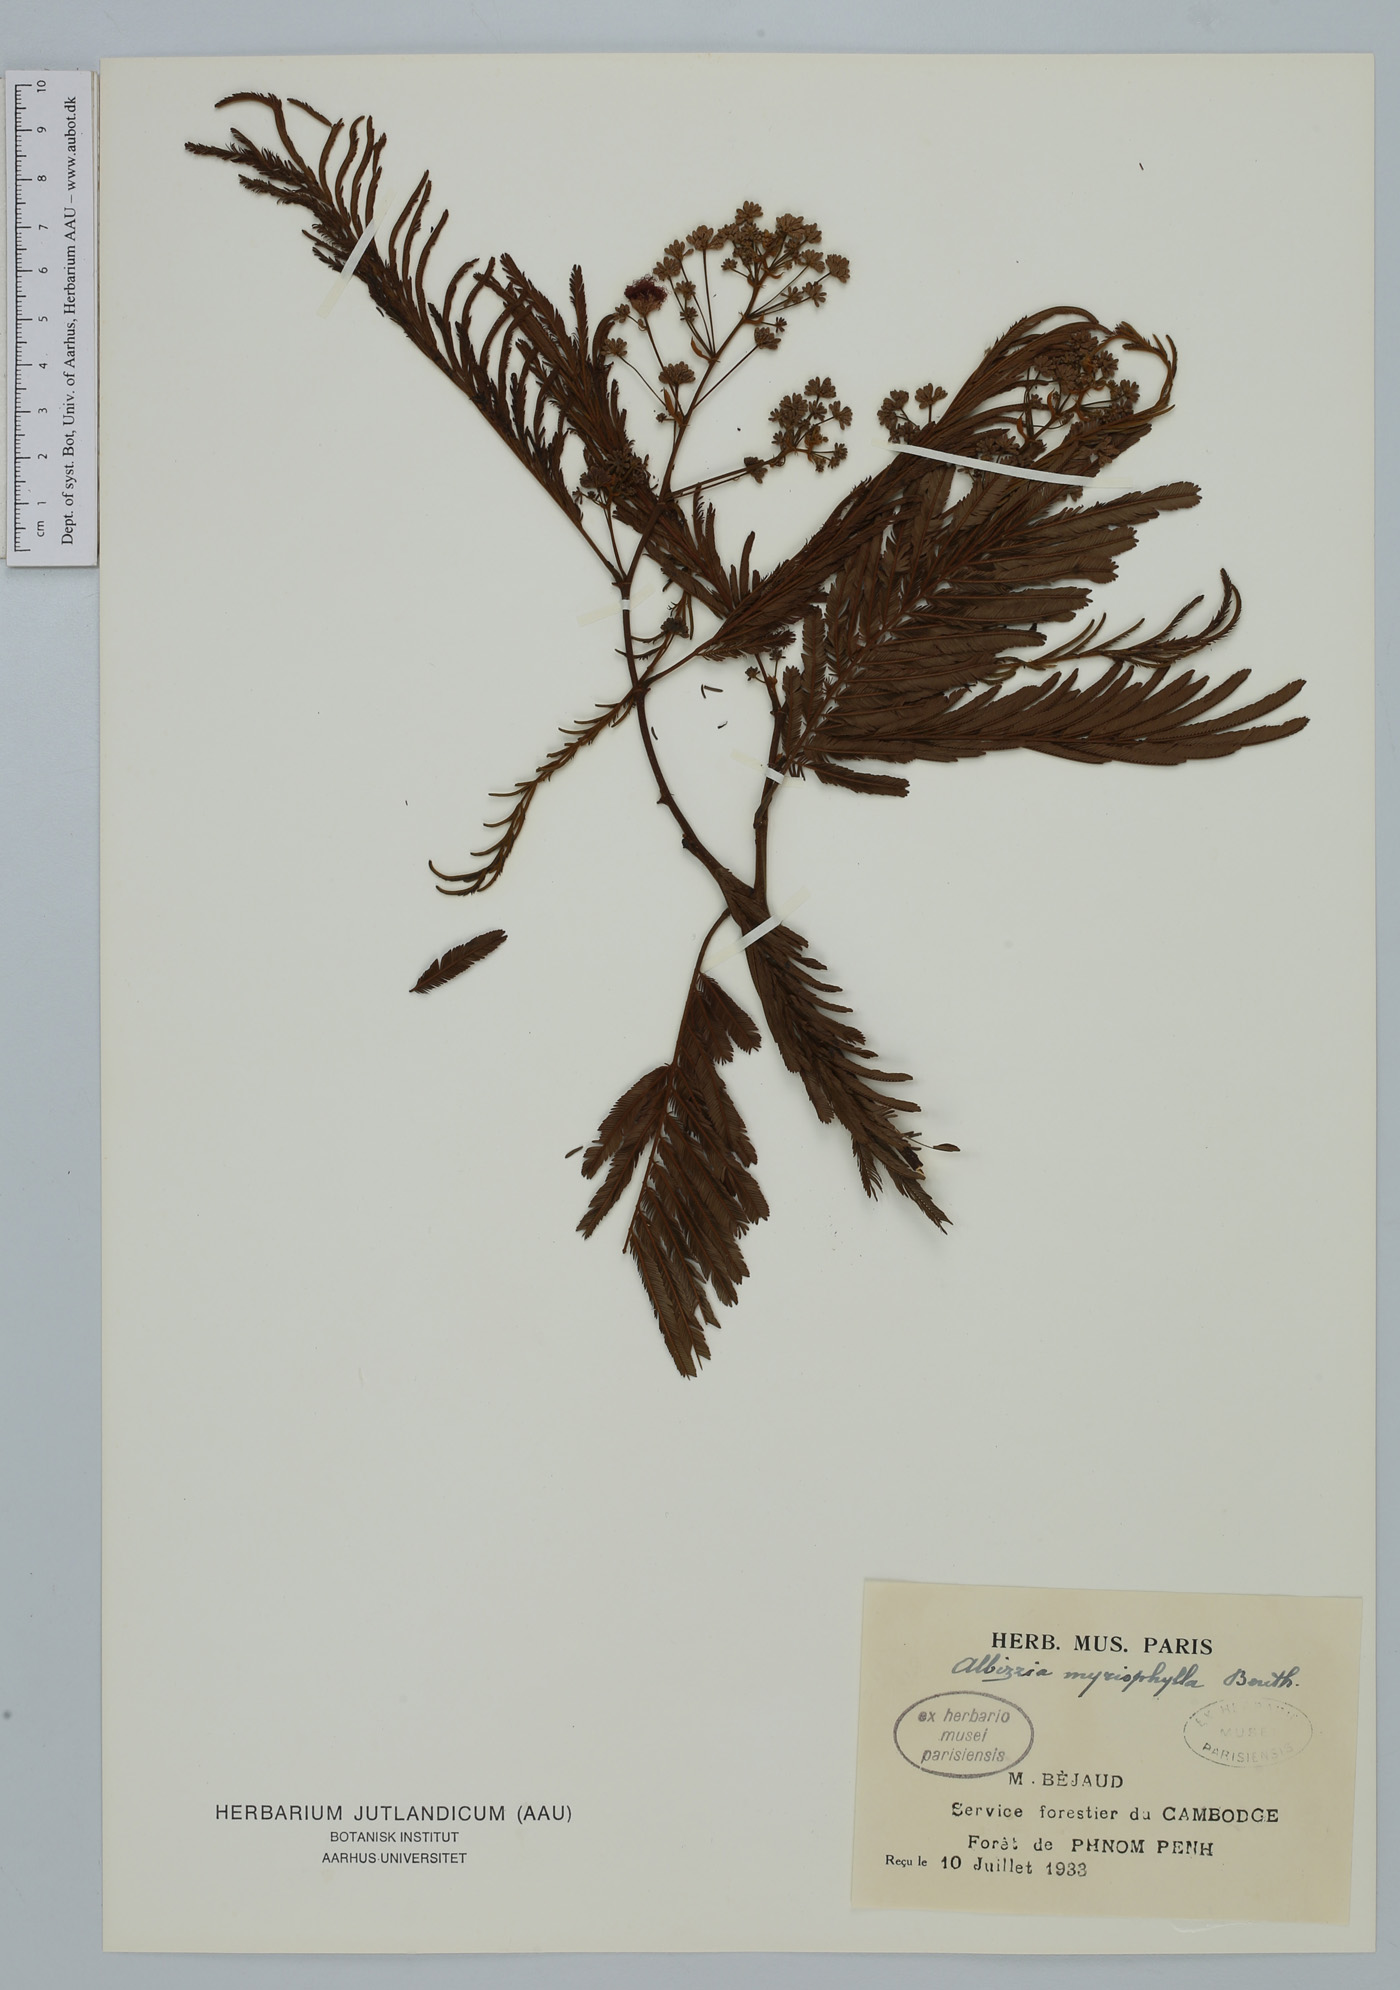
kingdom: Plantae
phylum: Tracheophyta
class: Magnoliopsida
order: Fabales
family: Fabaceae
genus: Albizia
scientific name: Albizia myriophylla
